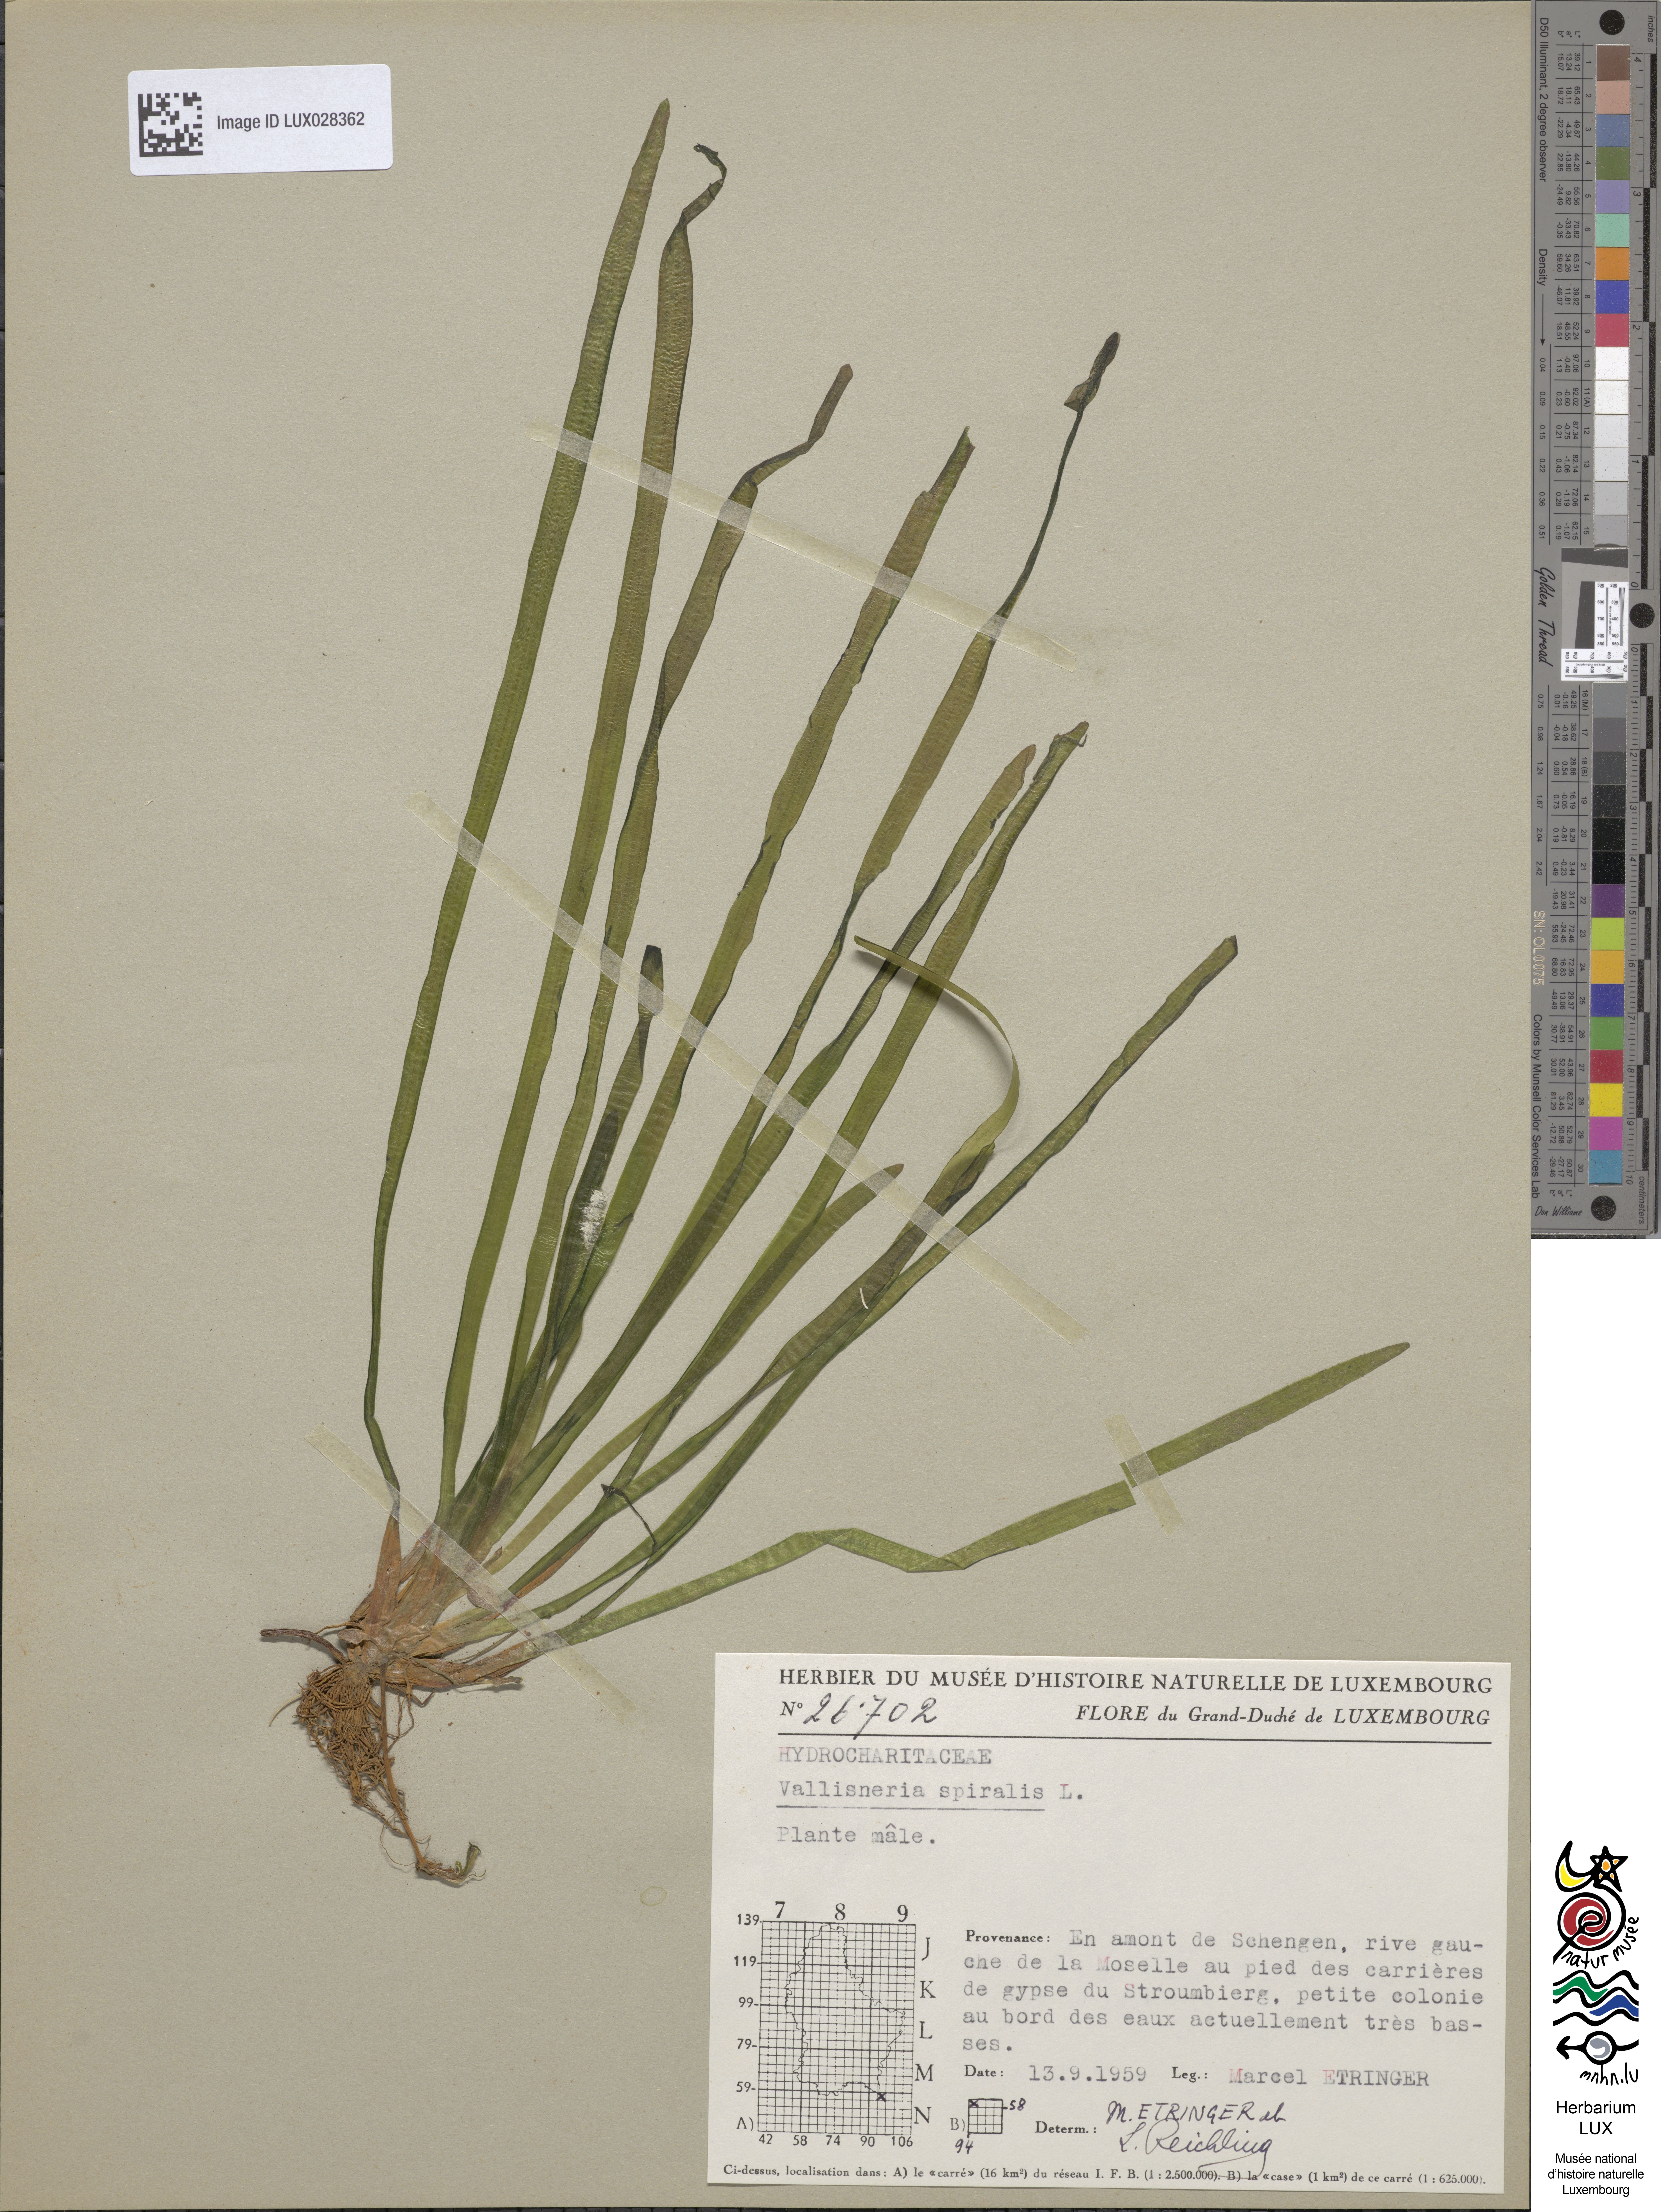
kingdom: Plantae
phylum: Tracheophyta
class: Liliopsida
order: Alismatales
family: Hydrocharitaceae
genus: Vallisneria
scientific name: Vallisneria spiralis
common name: Tapegrass
